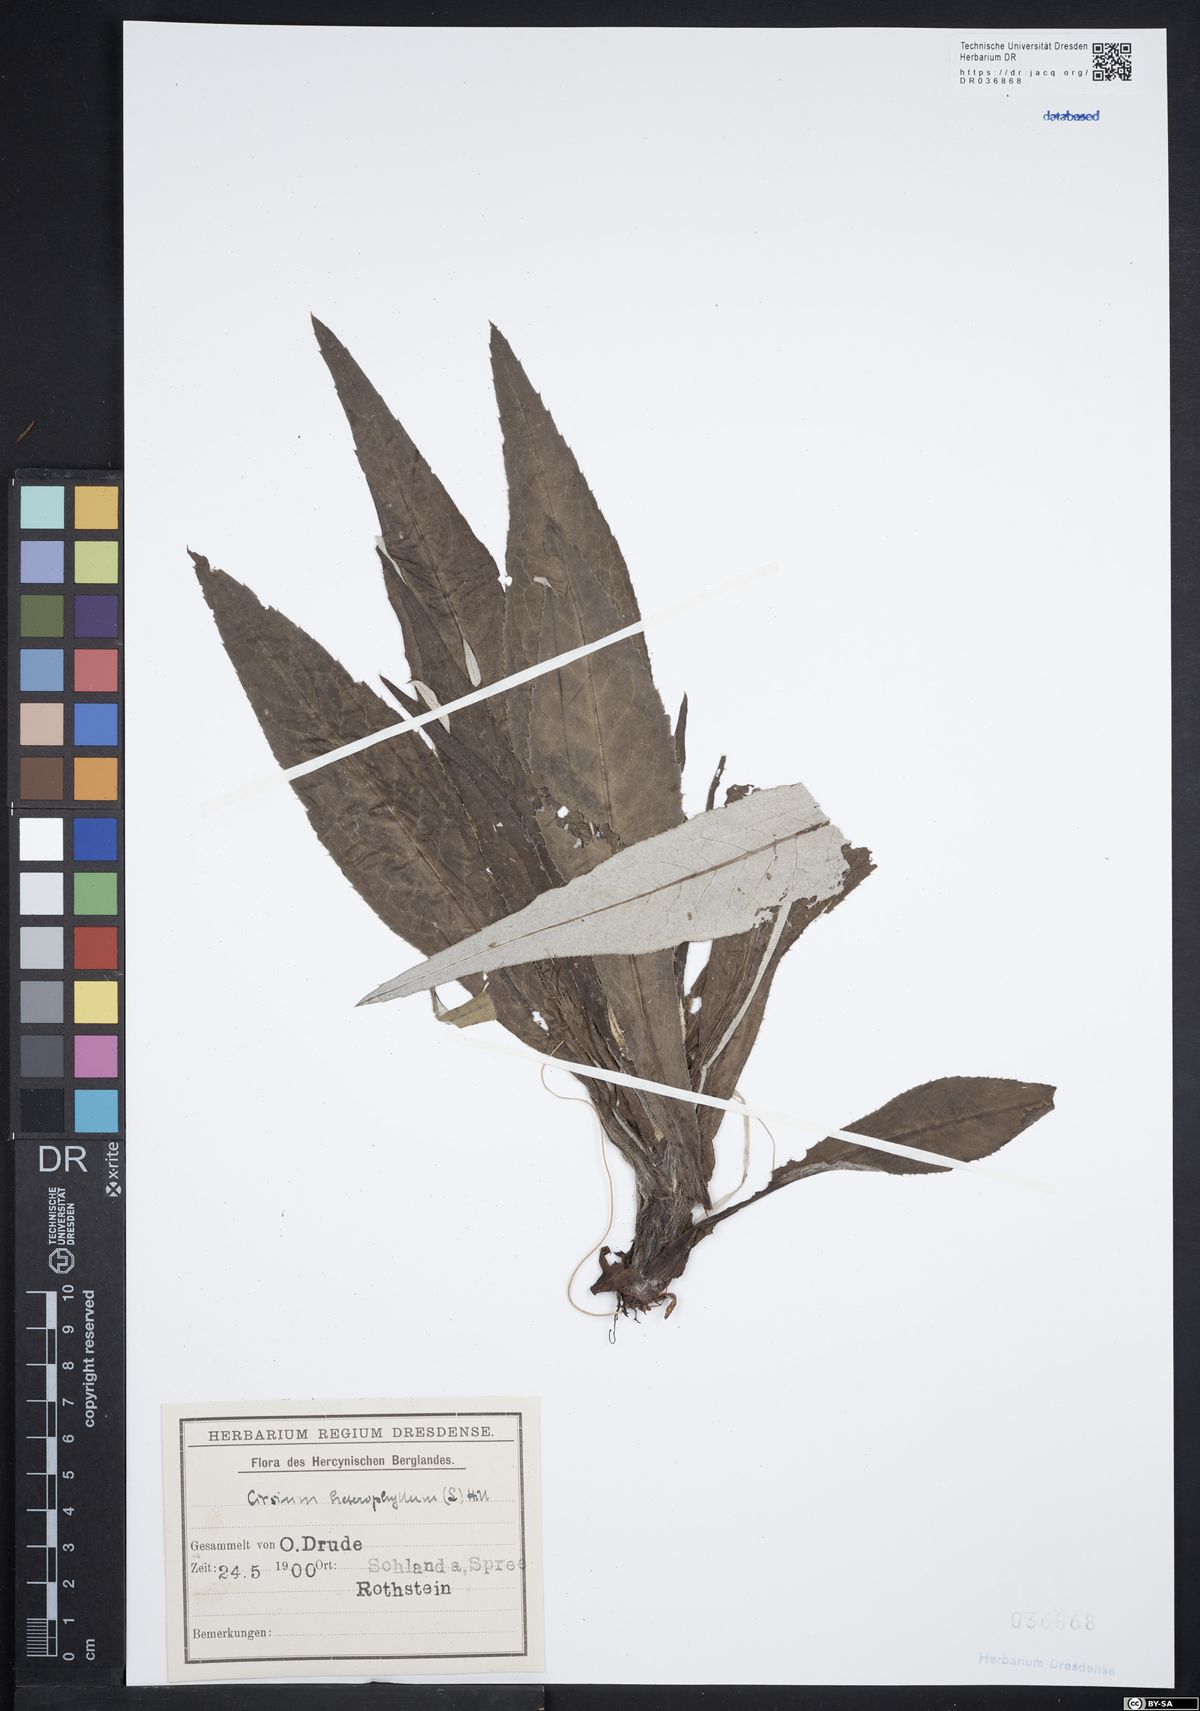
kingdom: Plantae
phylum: Tracheophyta
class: Magnoliopsida
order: Asterales
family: Asteraceae
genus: Cirsium
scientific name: Cirsium helenioides
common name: Melancholy thistle
